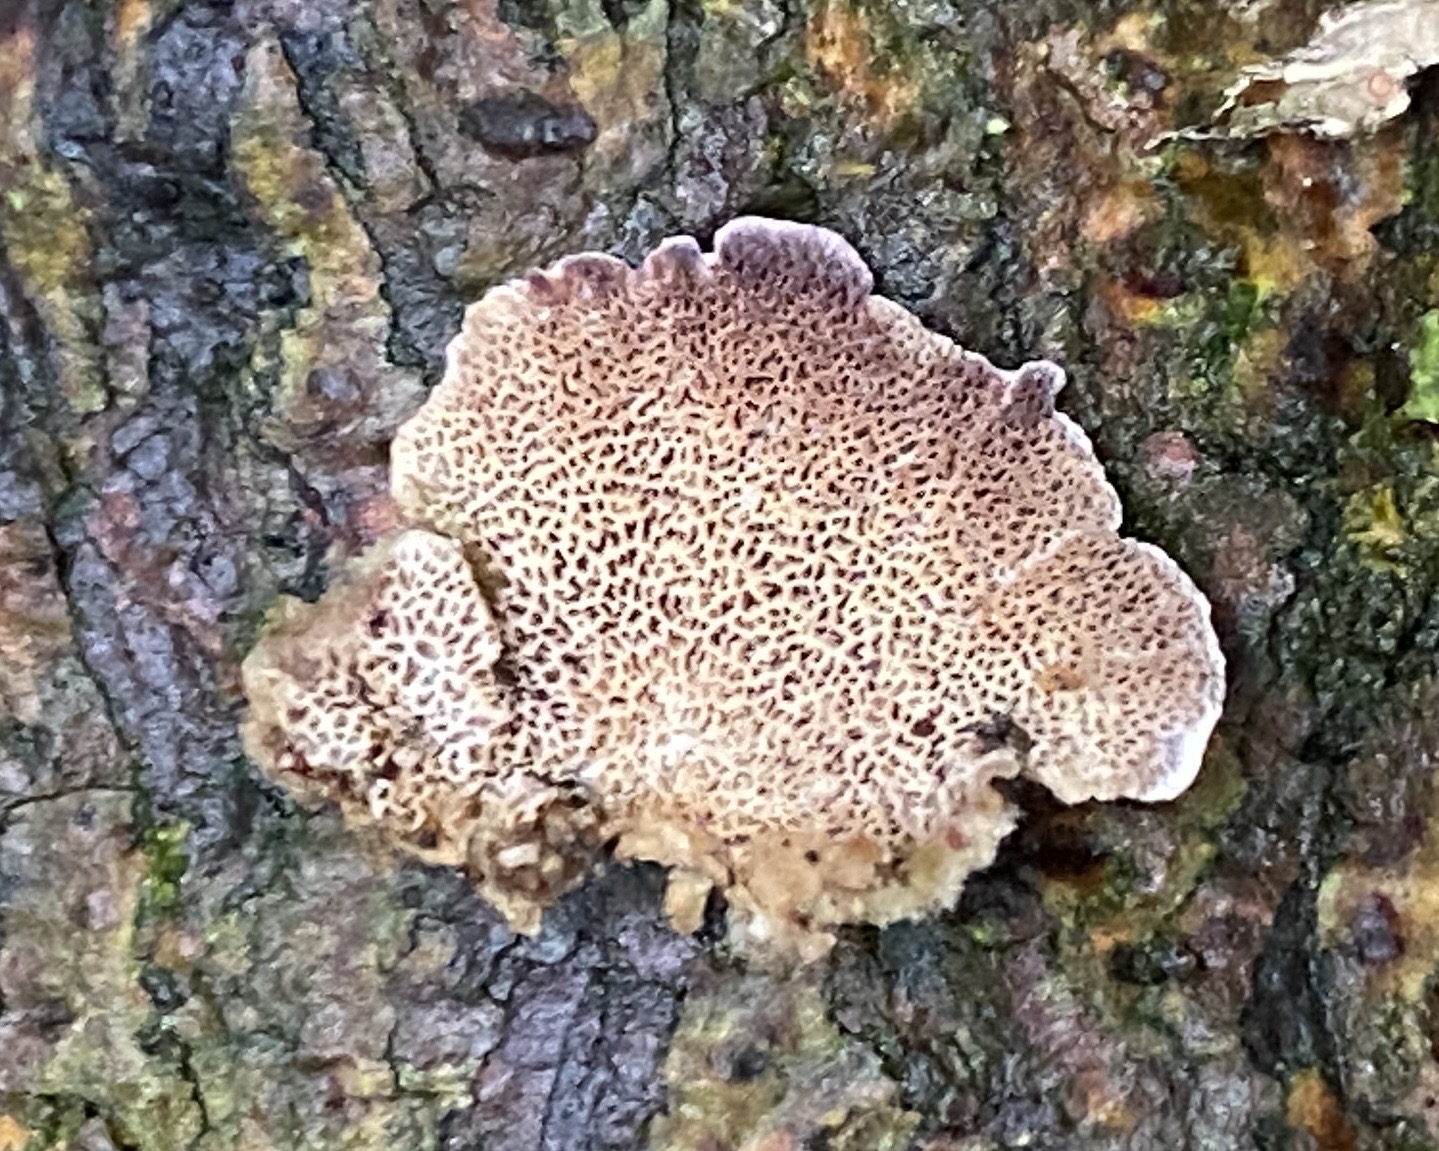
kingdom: Fungi
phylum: Basidiomycota
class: Agaricomycetes
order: Hymenochaetales
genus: Trichaptum
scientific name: Trichaptum abietinum
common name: almindelig violporesvamp
